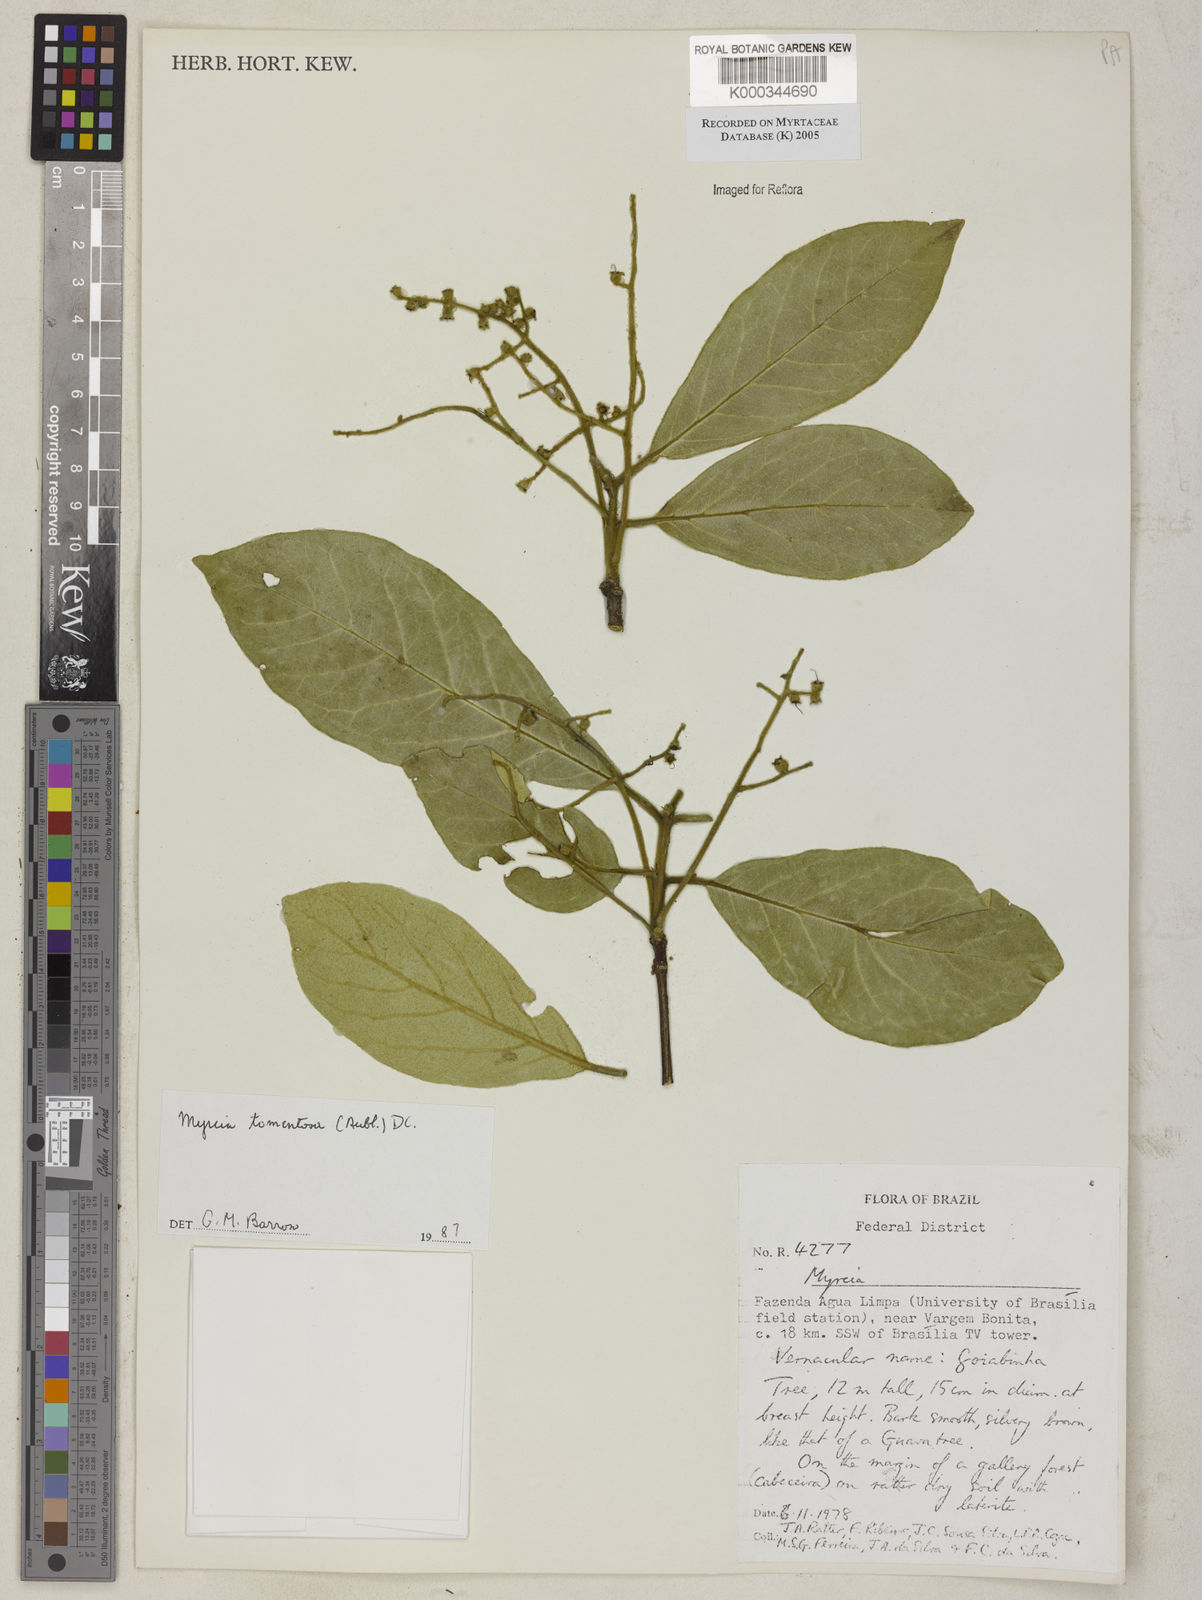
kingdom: Plantae
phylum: Tracheophyta
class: Magnoliopsida
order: Myrtales
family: Myrtaceae
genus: Myrcia
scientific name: Myrcia tomentosa
